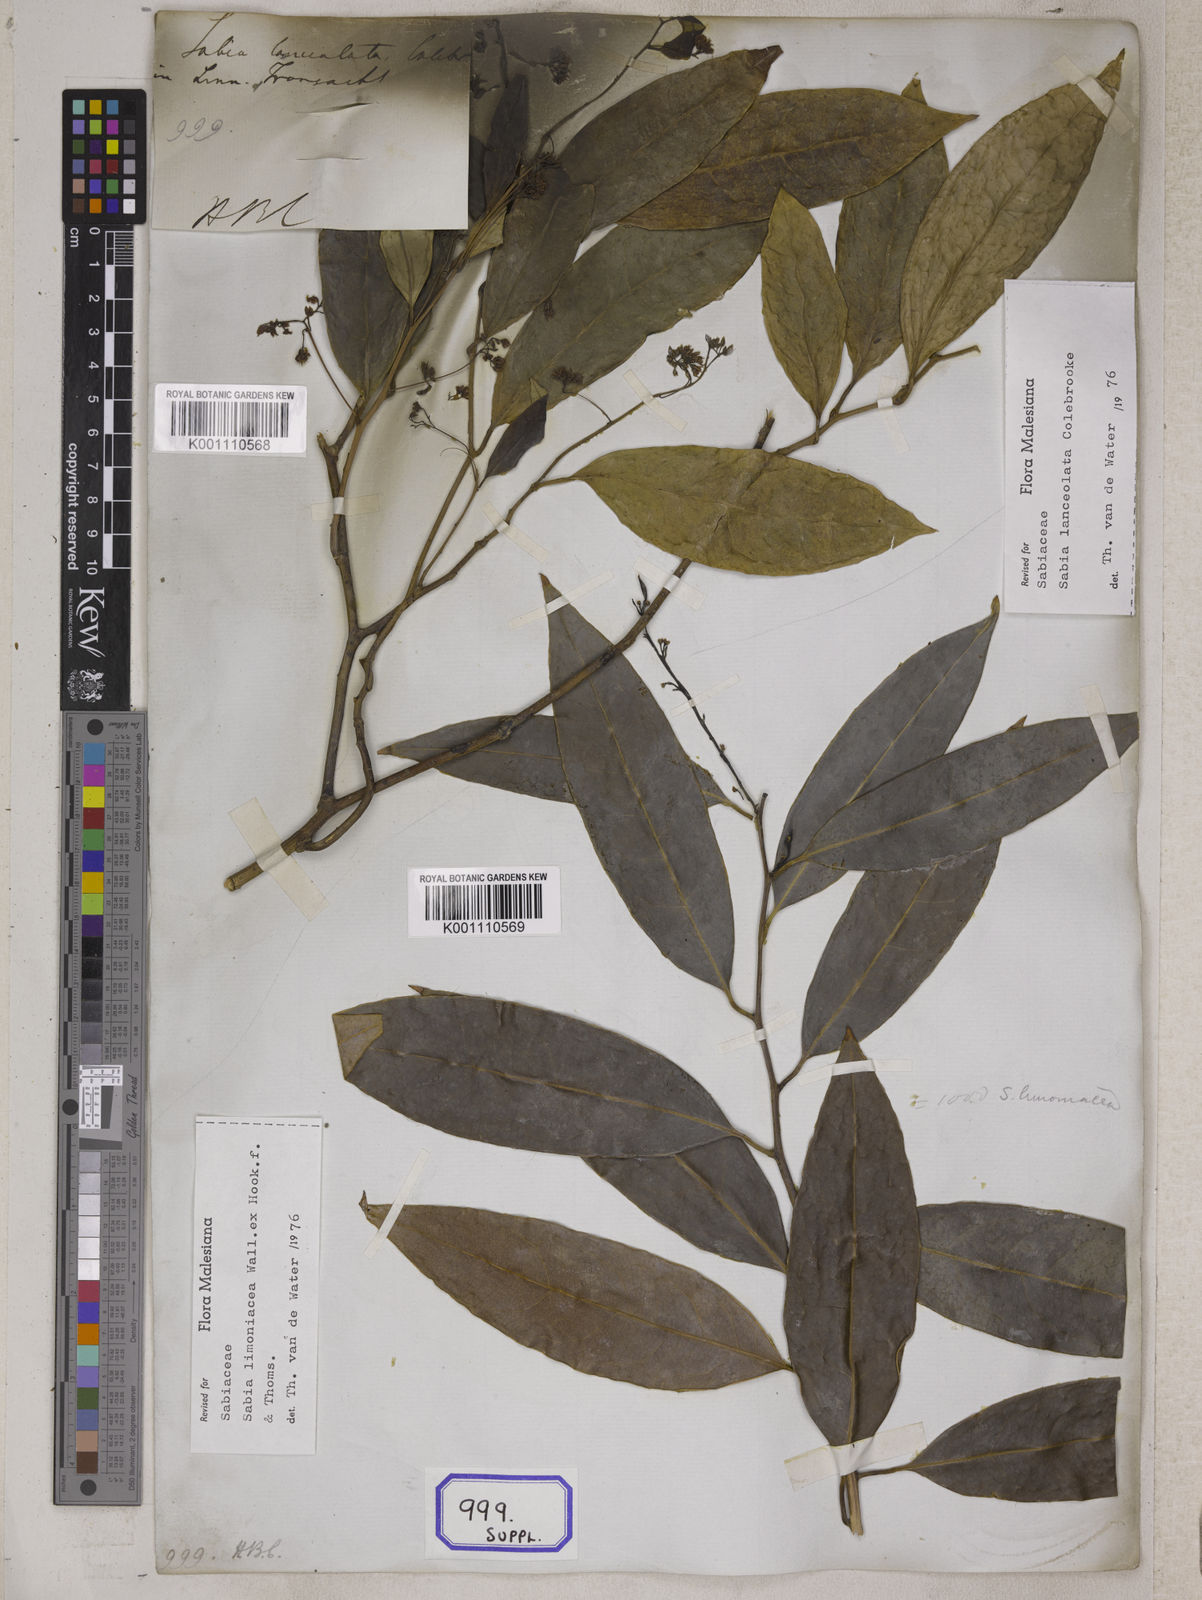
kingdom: Plantae
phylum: Tracheophyta
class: Magnoliopsida
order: Proteales
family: Sabiaceae
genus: Sabia
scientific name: Sabia lanceolata
